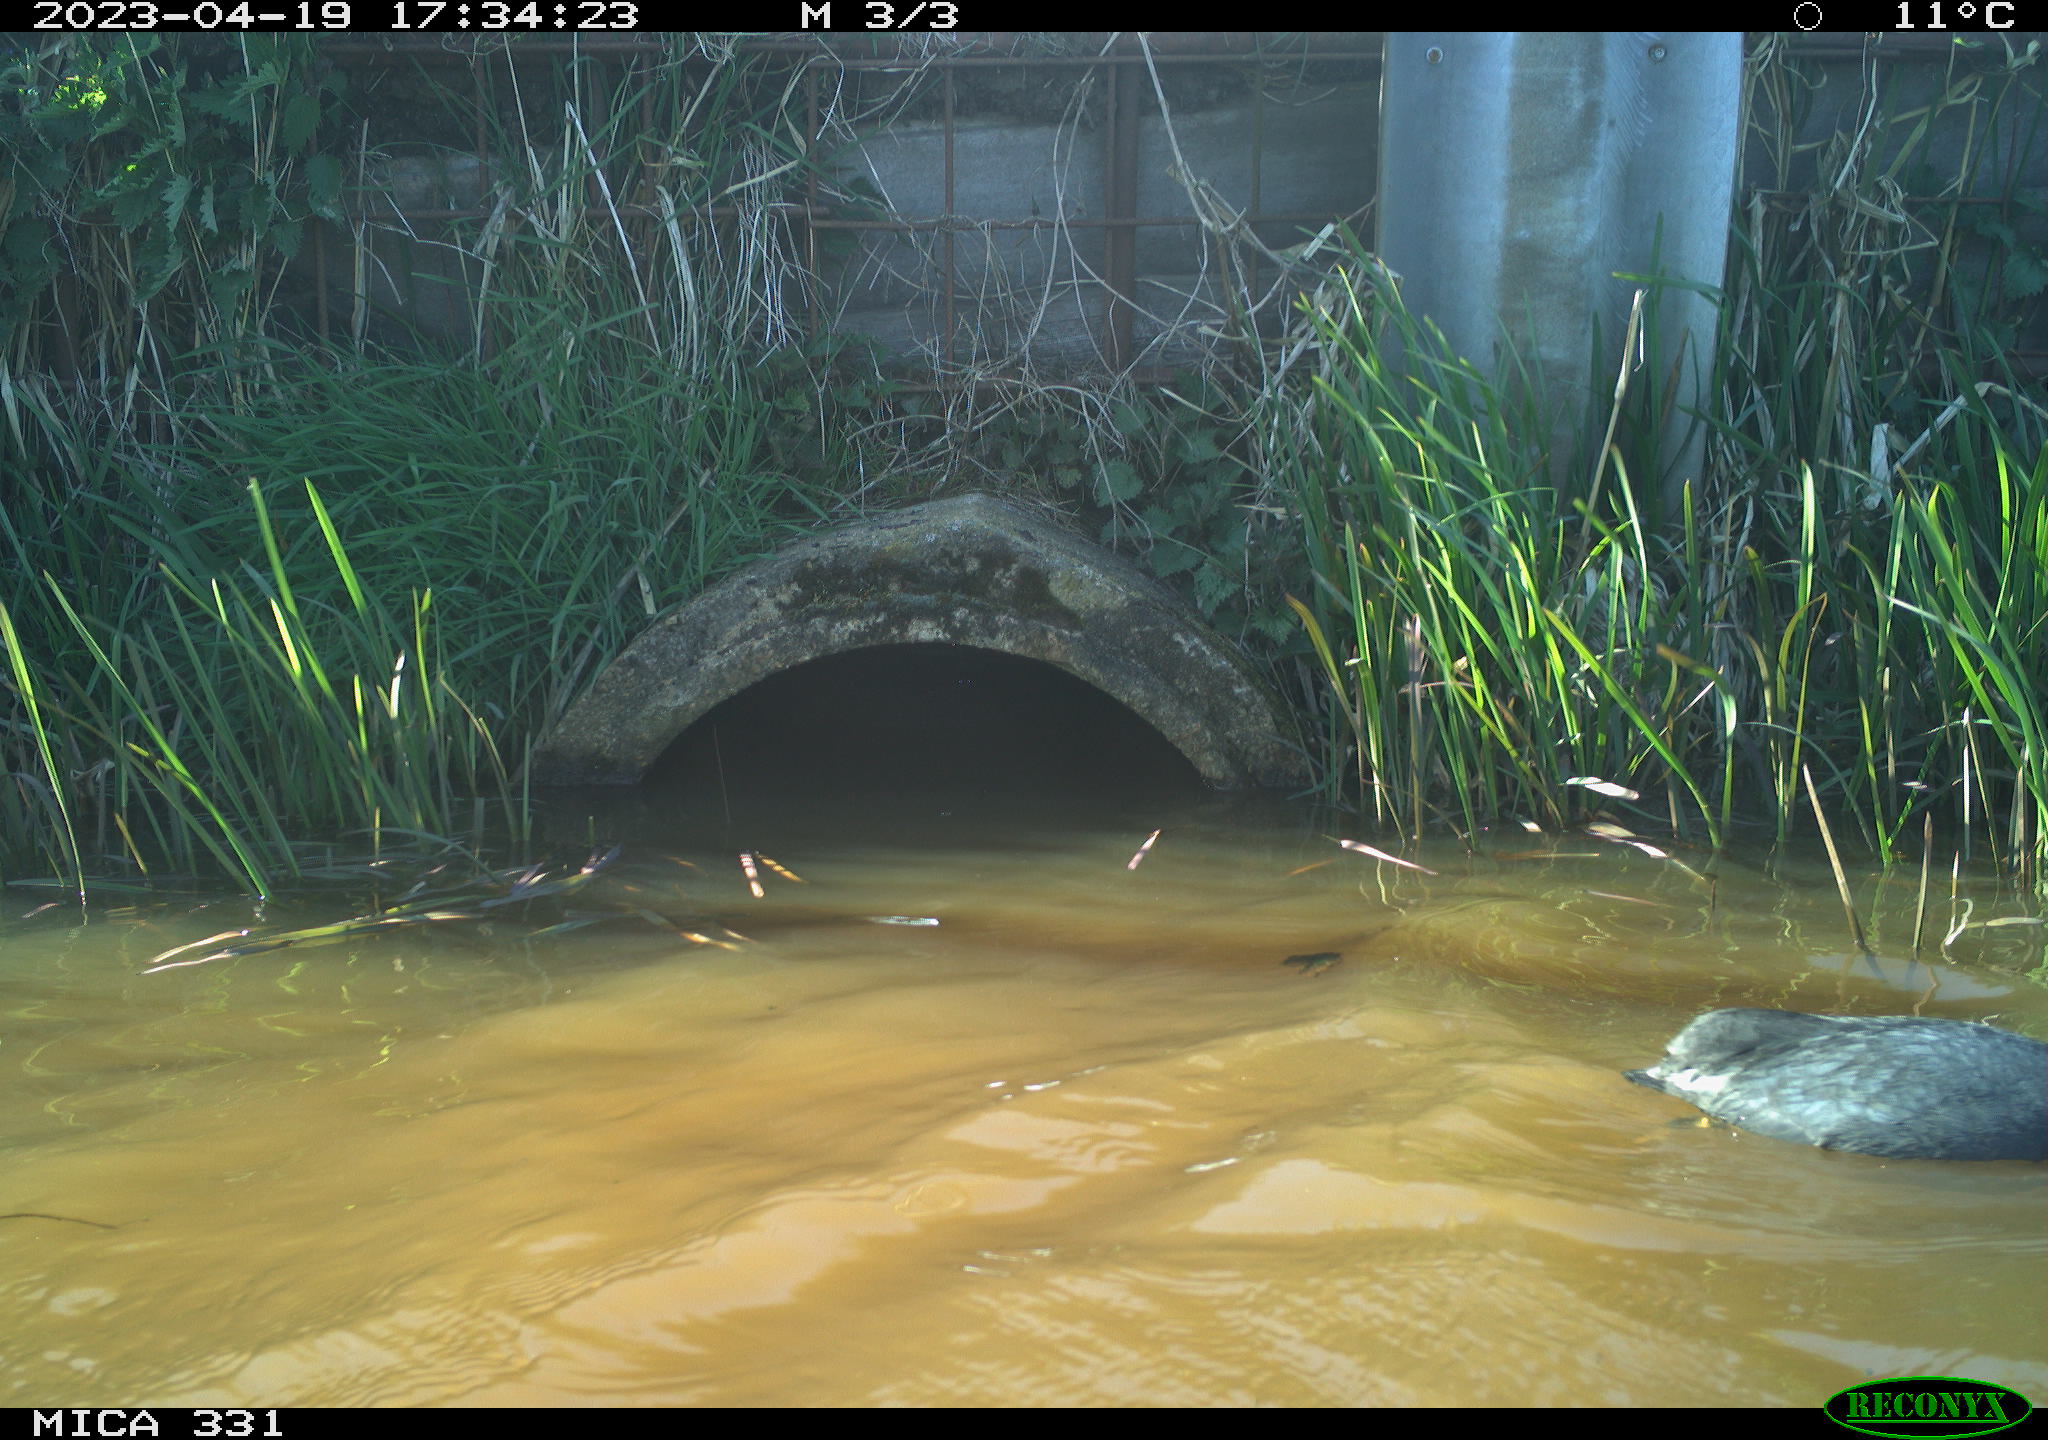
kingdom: Animalia
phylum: Chordata
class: Aves
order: Gruiformes
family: Rallidae
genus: Fulica
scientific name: Fulica atra
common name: Eurasian coot
